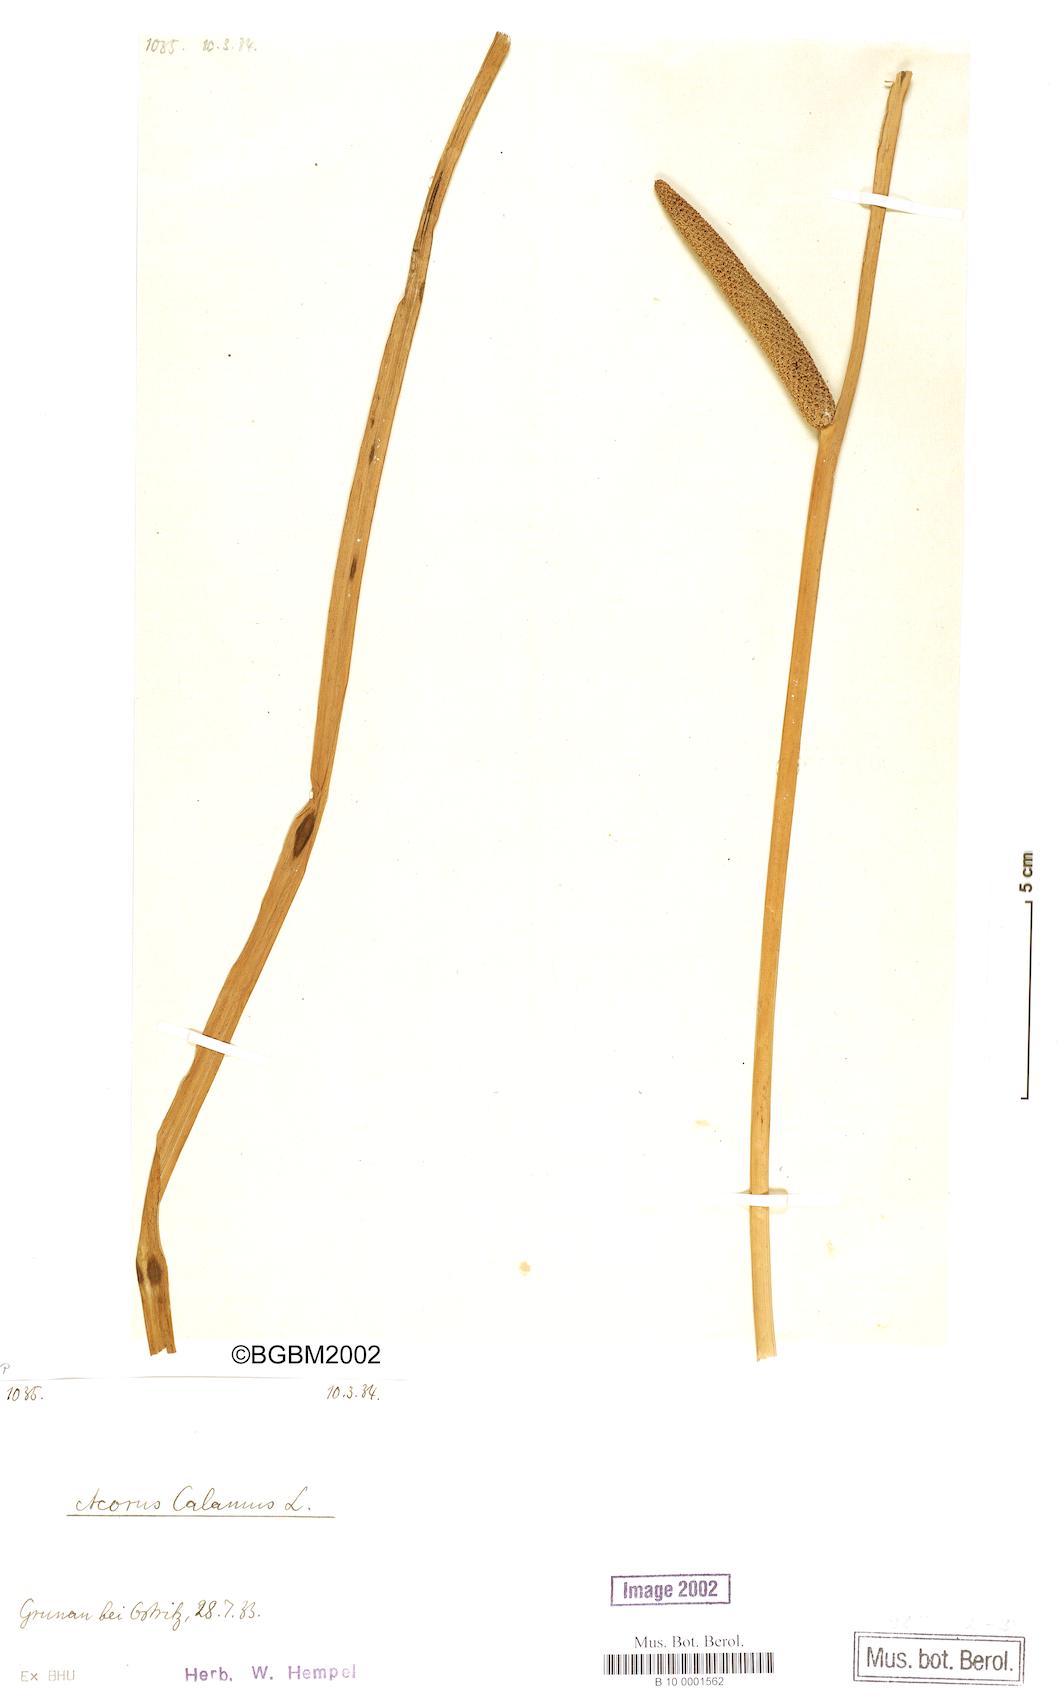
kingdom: Plantae
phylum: Tracheophyta
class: Liliopsida
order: Acorales
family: Acoraceae
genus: Acorus
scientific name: Acorus calamus
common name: Sweet-flag
